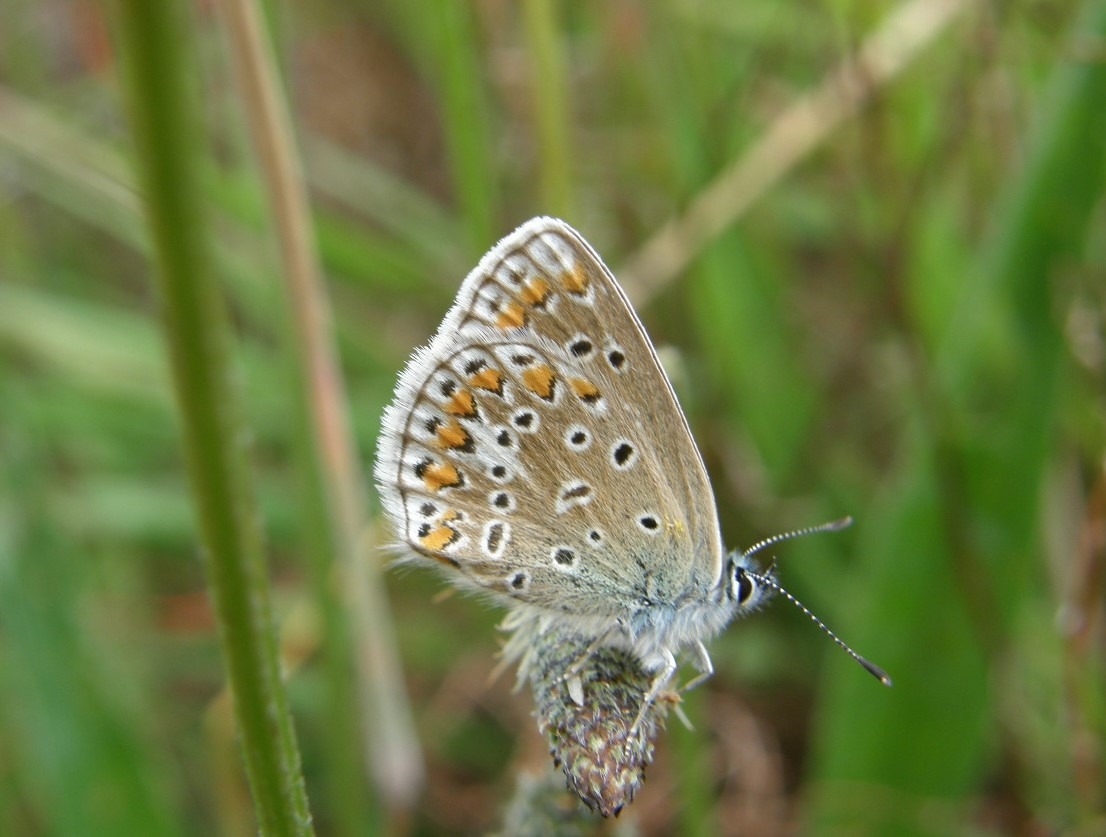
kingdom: Animalia
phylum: Arthropoda
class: Insecta
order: Lepidoptera
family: Lycaenidae
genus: Polyommatus
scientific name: Polyommatus icarus
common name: Almindelig blåfugl
